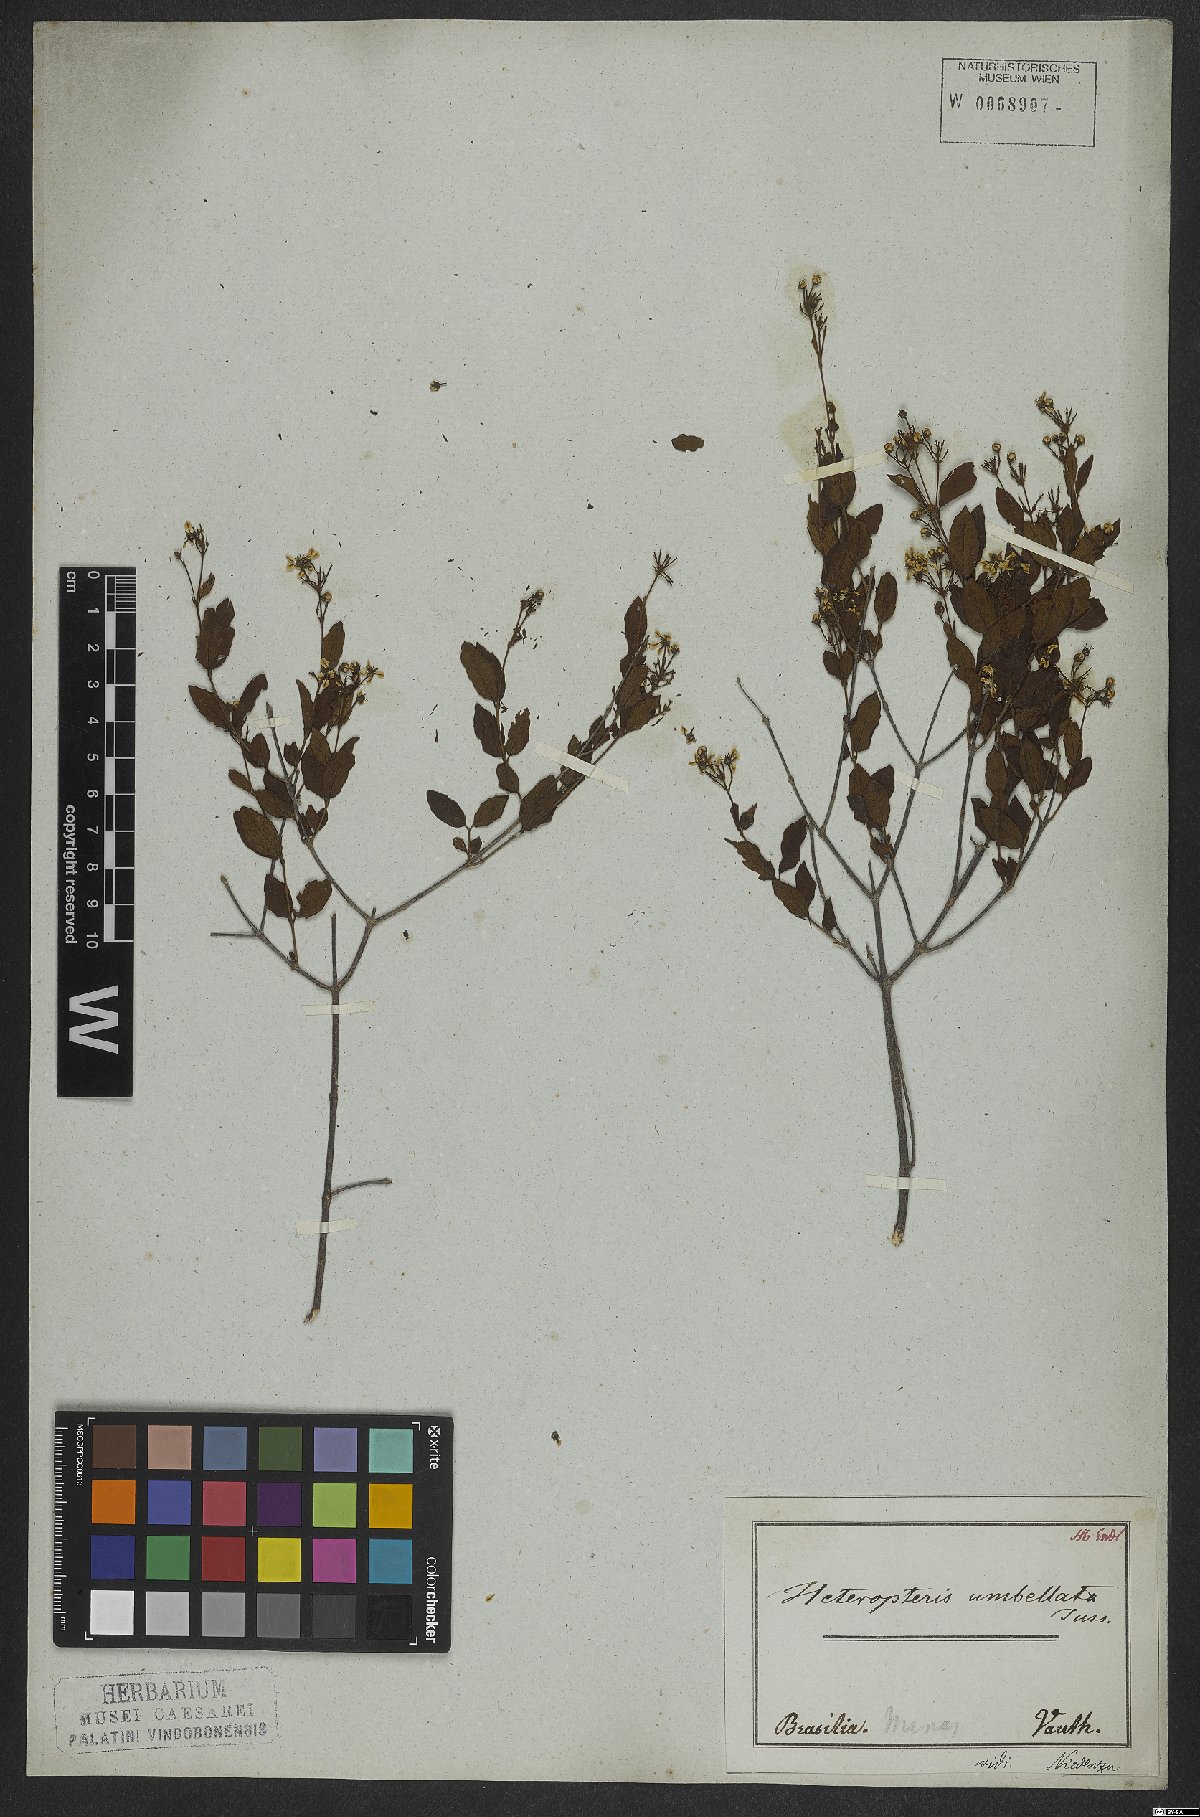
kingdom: Plantae
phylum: Tracheophyta
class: Magnoliopsida
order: Malpighiales
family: Malpighiaceae
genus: Heteropterys
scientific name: Heteropterys umbellata
